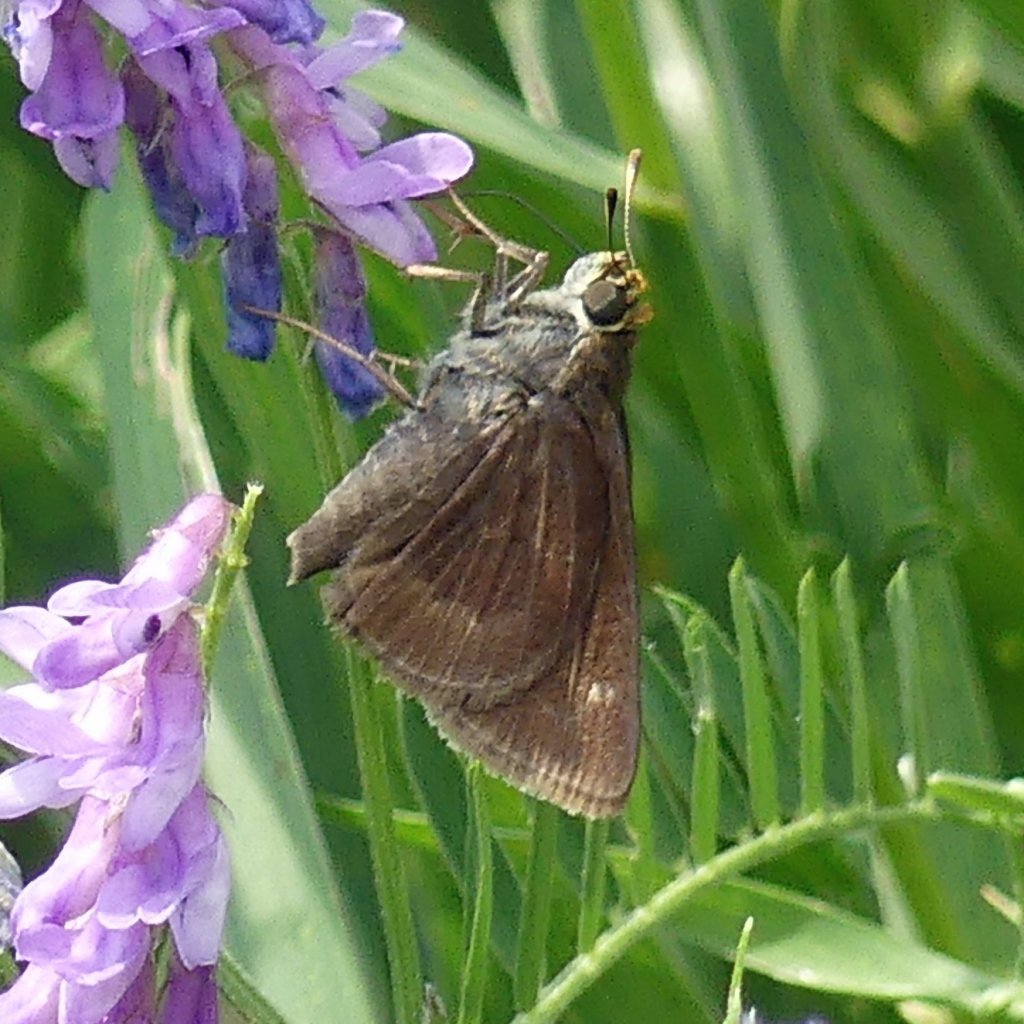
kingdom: Animalia
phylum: Arthropoda
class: Insecta
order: Lepidoptera
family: Hesperiidae
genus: Euphyes
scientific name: Euphyes vestris
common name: Dun Skipper
